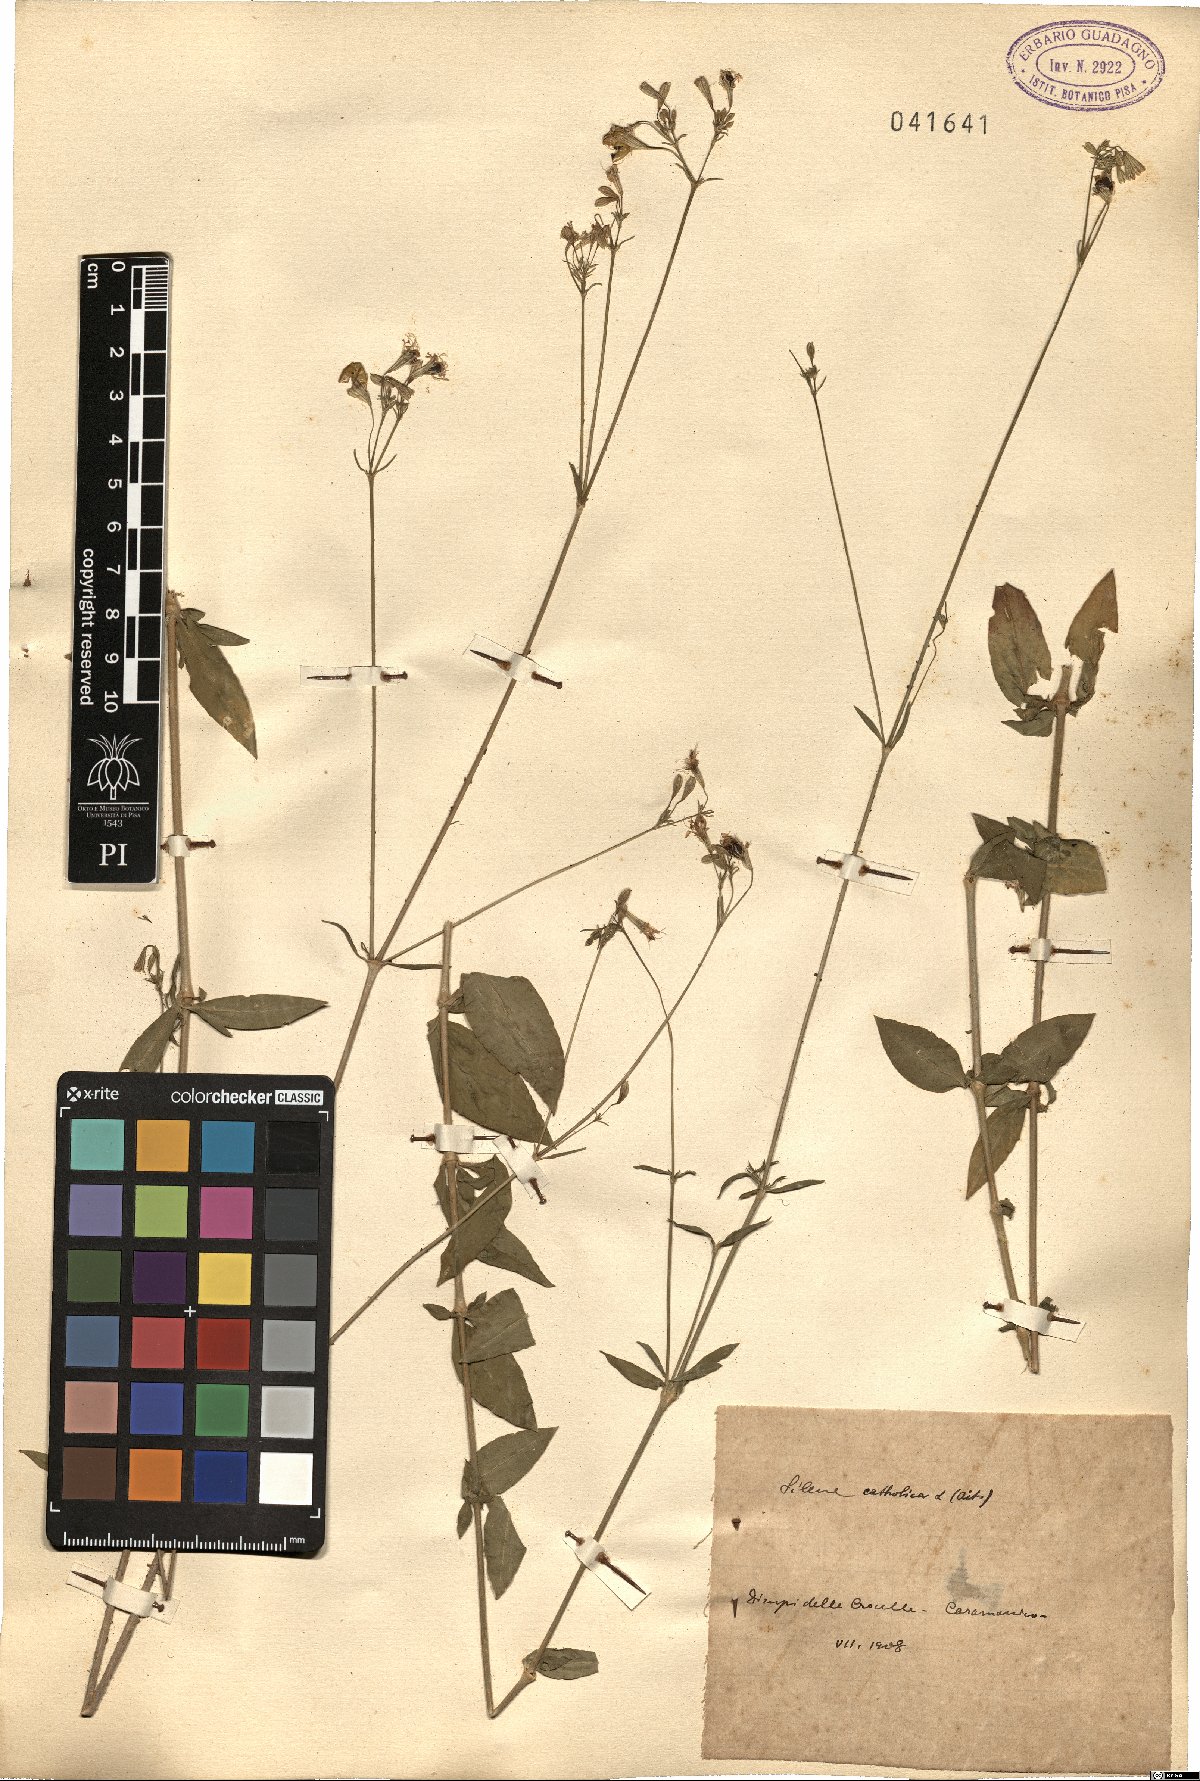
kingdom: Plantae
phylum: Tracheophyta
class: Magnoliopsida
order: Caryophyllales
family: Caryophyllaceae
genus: Silene
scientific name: Silene catholica
